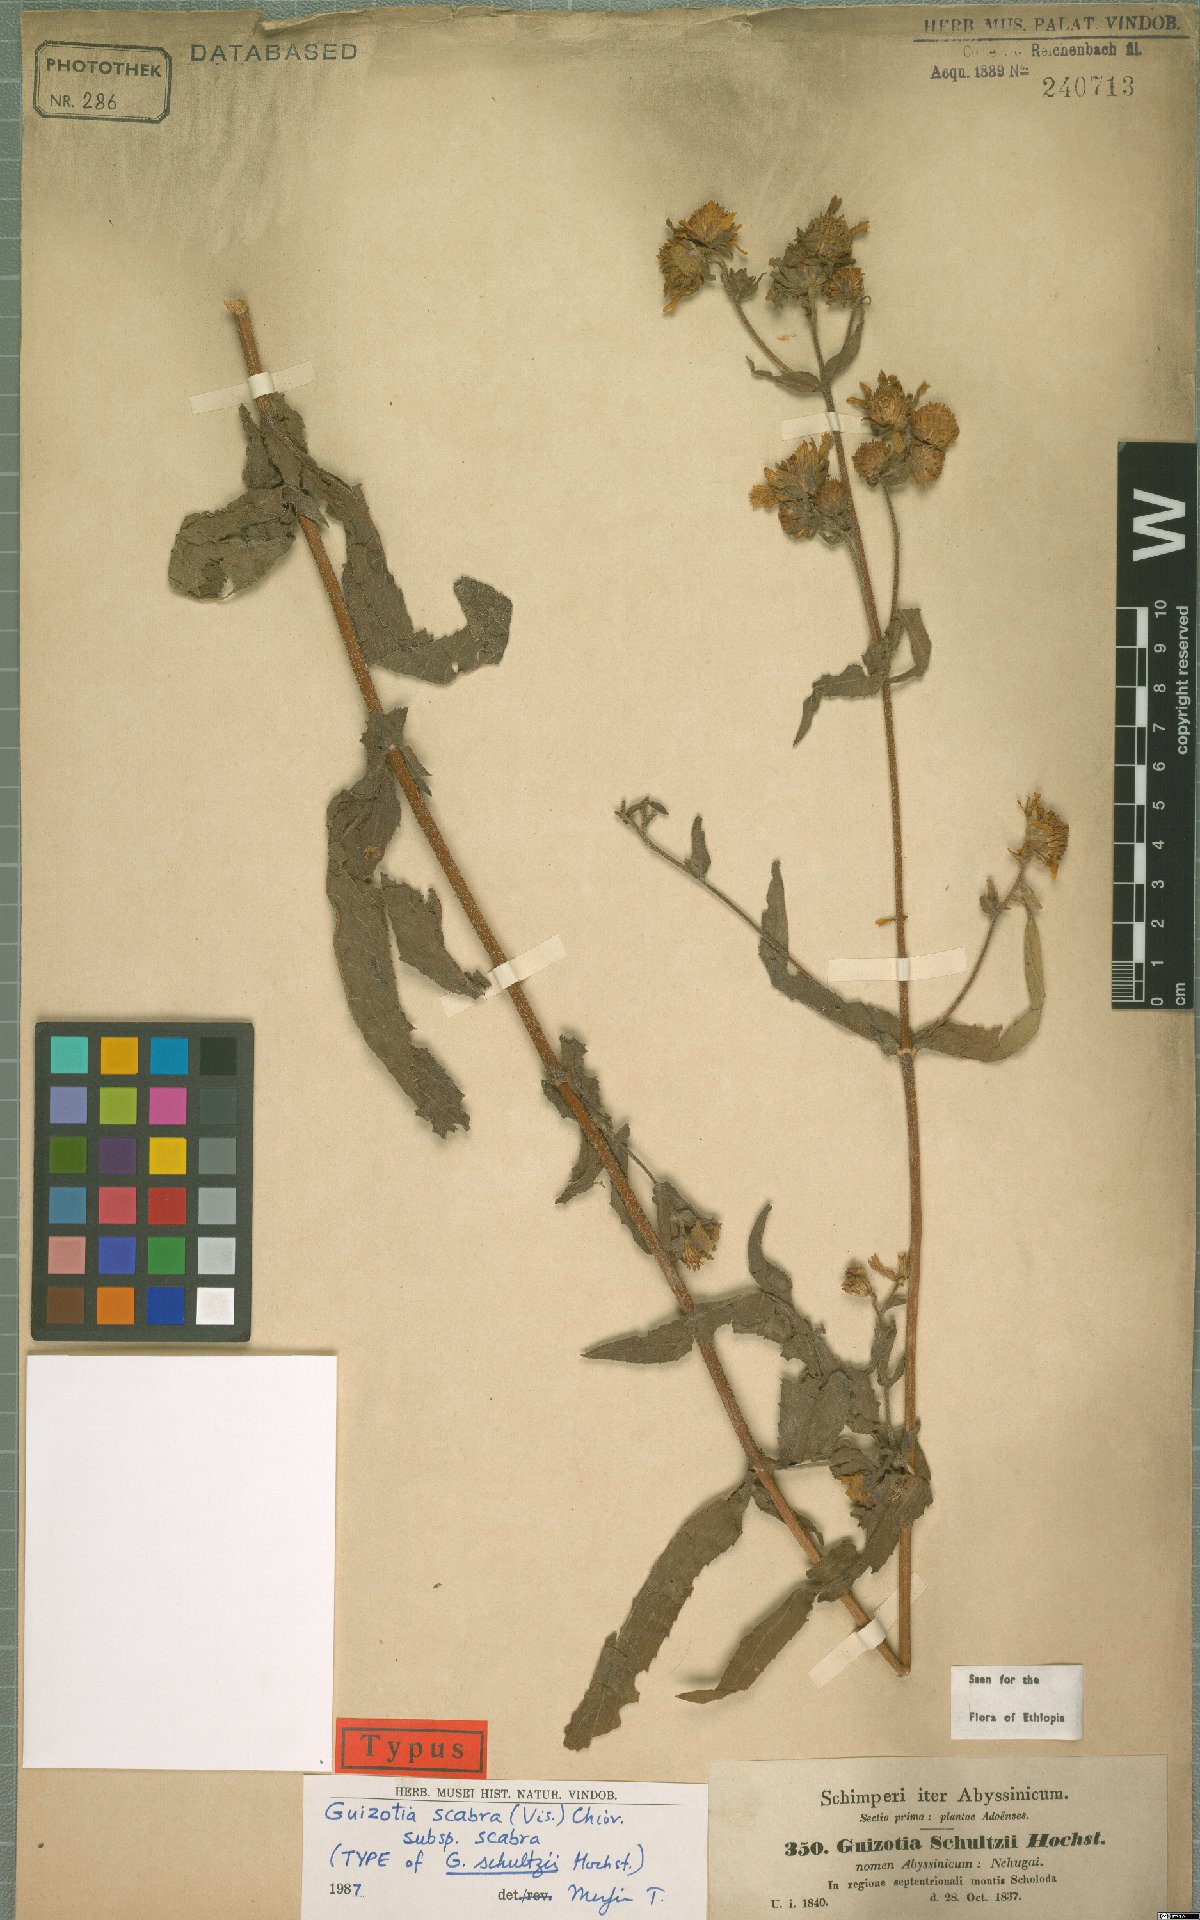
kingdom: Plantae
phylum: Tracheophyta
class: Magnoliopsida
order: Asterales
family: Asteraceae
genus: Guizotia
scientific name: Guizotia scabra
